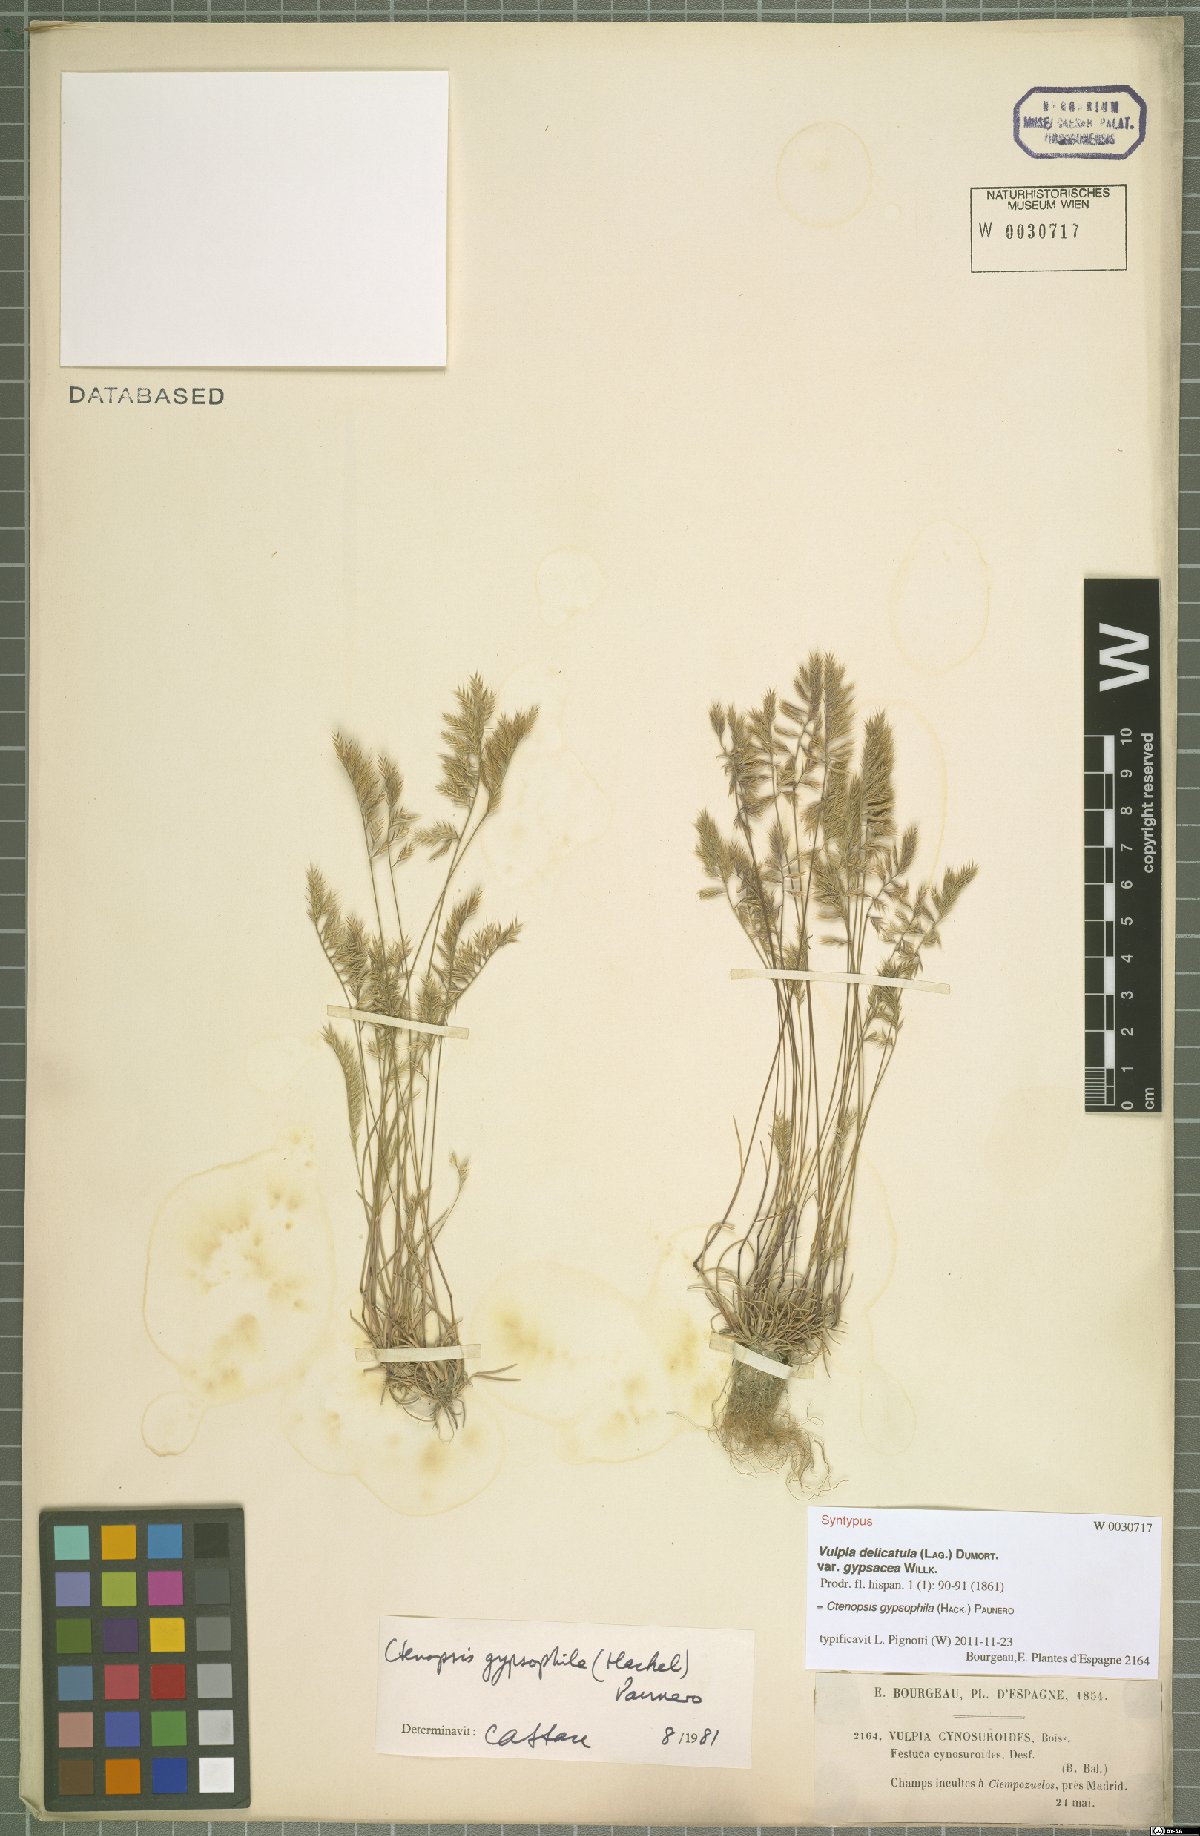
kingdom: Plantae
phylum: Tracheophyta
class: Liliopsida
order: Poales
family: Poaceae
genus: Festuca
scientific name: Festuca gypsophila
